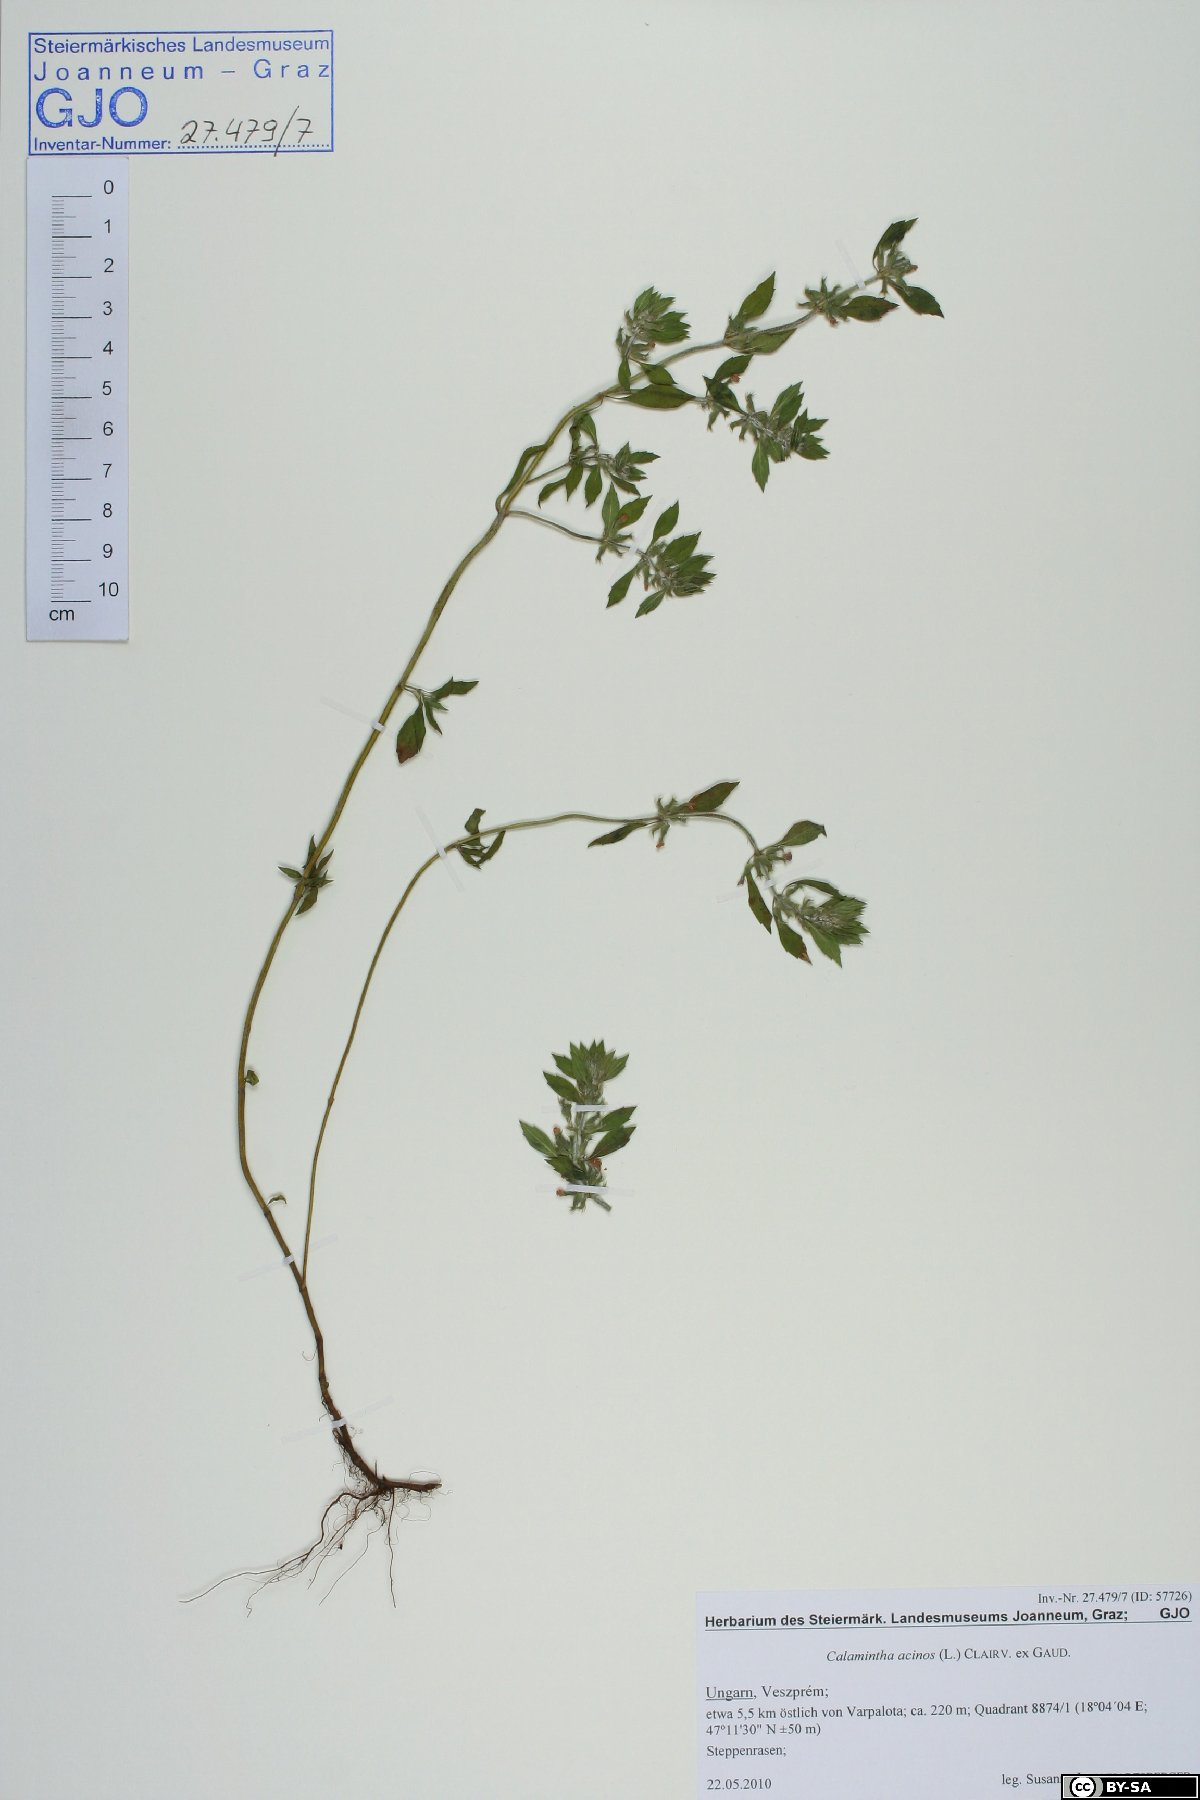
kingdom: Plantae
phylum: Tracheophyta
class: Magnoliopsida
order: Lamiales
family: Lamiaceae
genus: Clinopodium
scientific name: Clinopodium acinos
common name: Basil thyme
